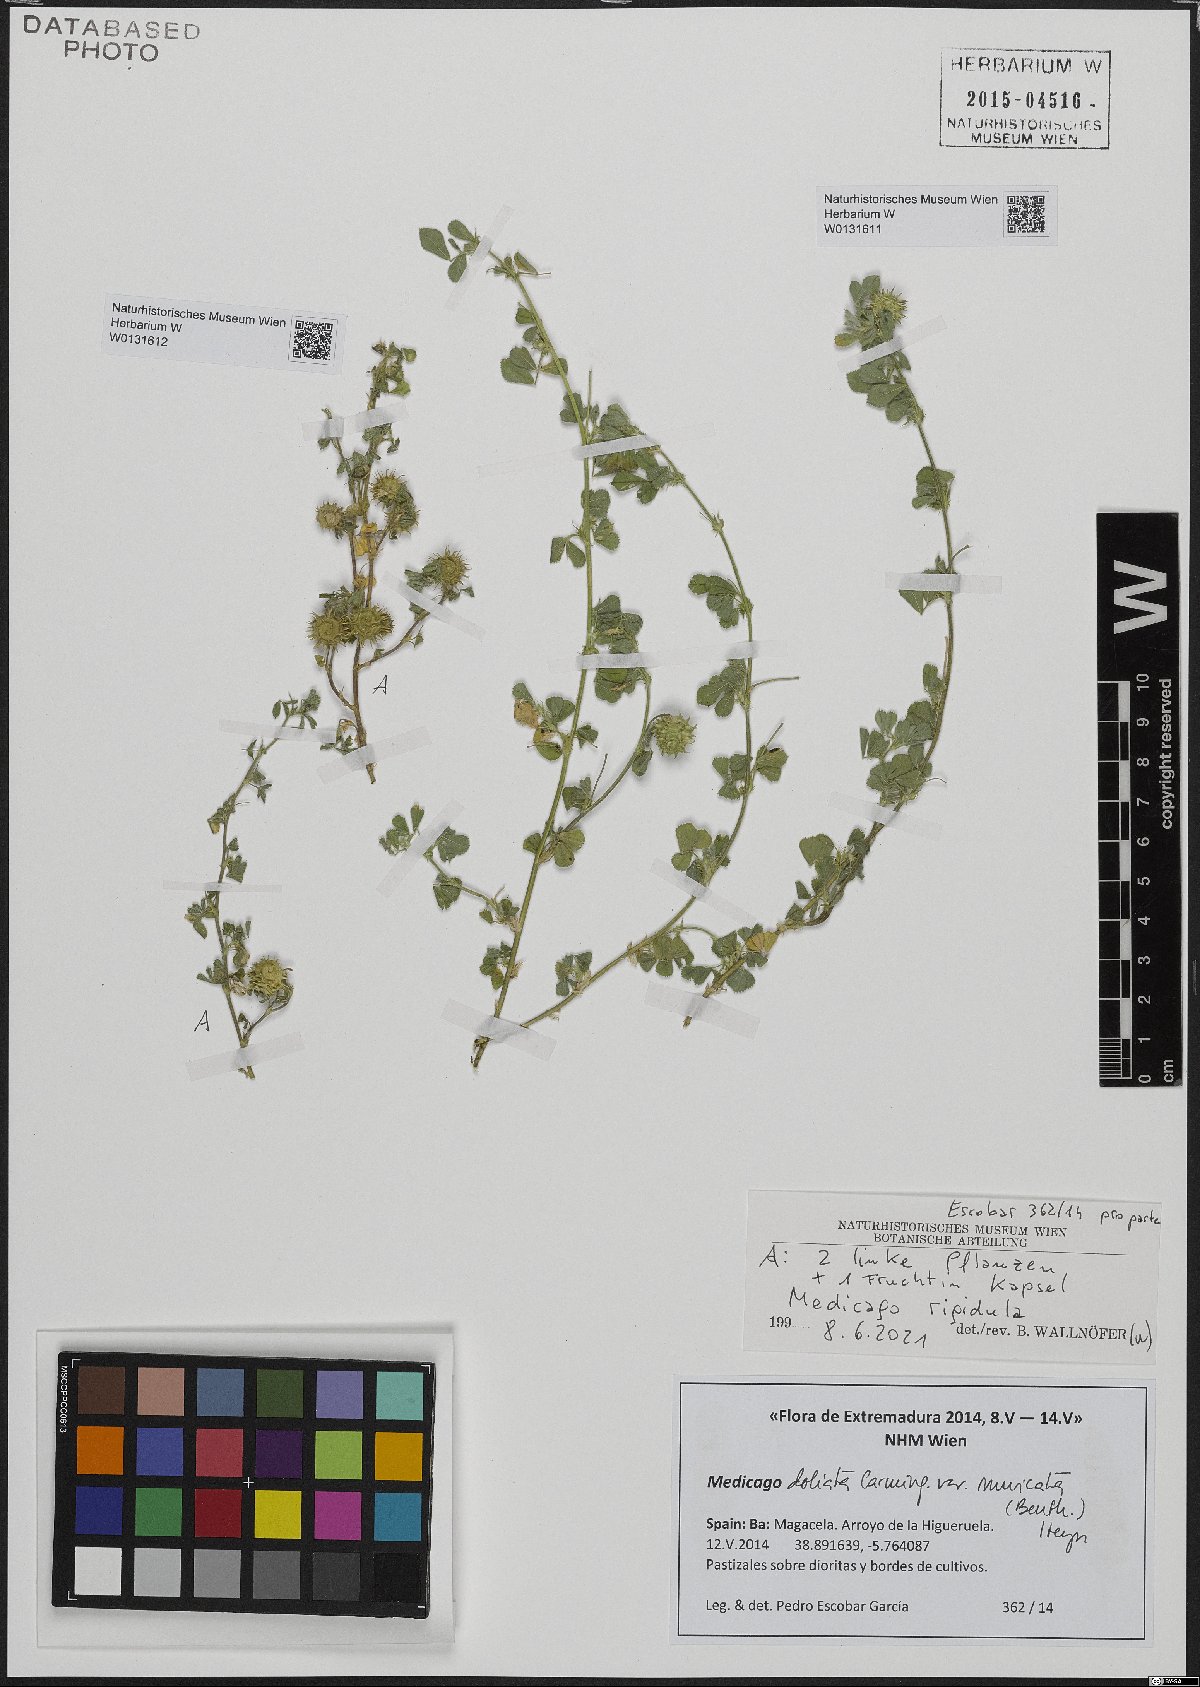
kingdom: Plantae
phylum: Tracheophyta
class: Magnoliopsida
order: Fabales
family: Fabaceae
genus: Medicago
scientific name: Medicago rigidula
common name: Tifton medic
